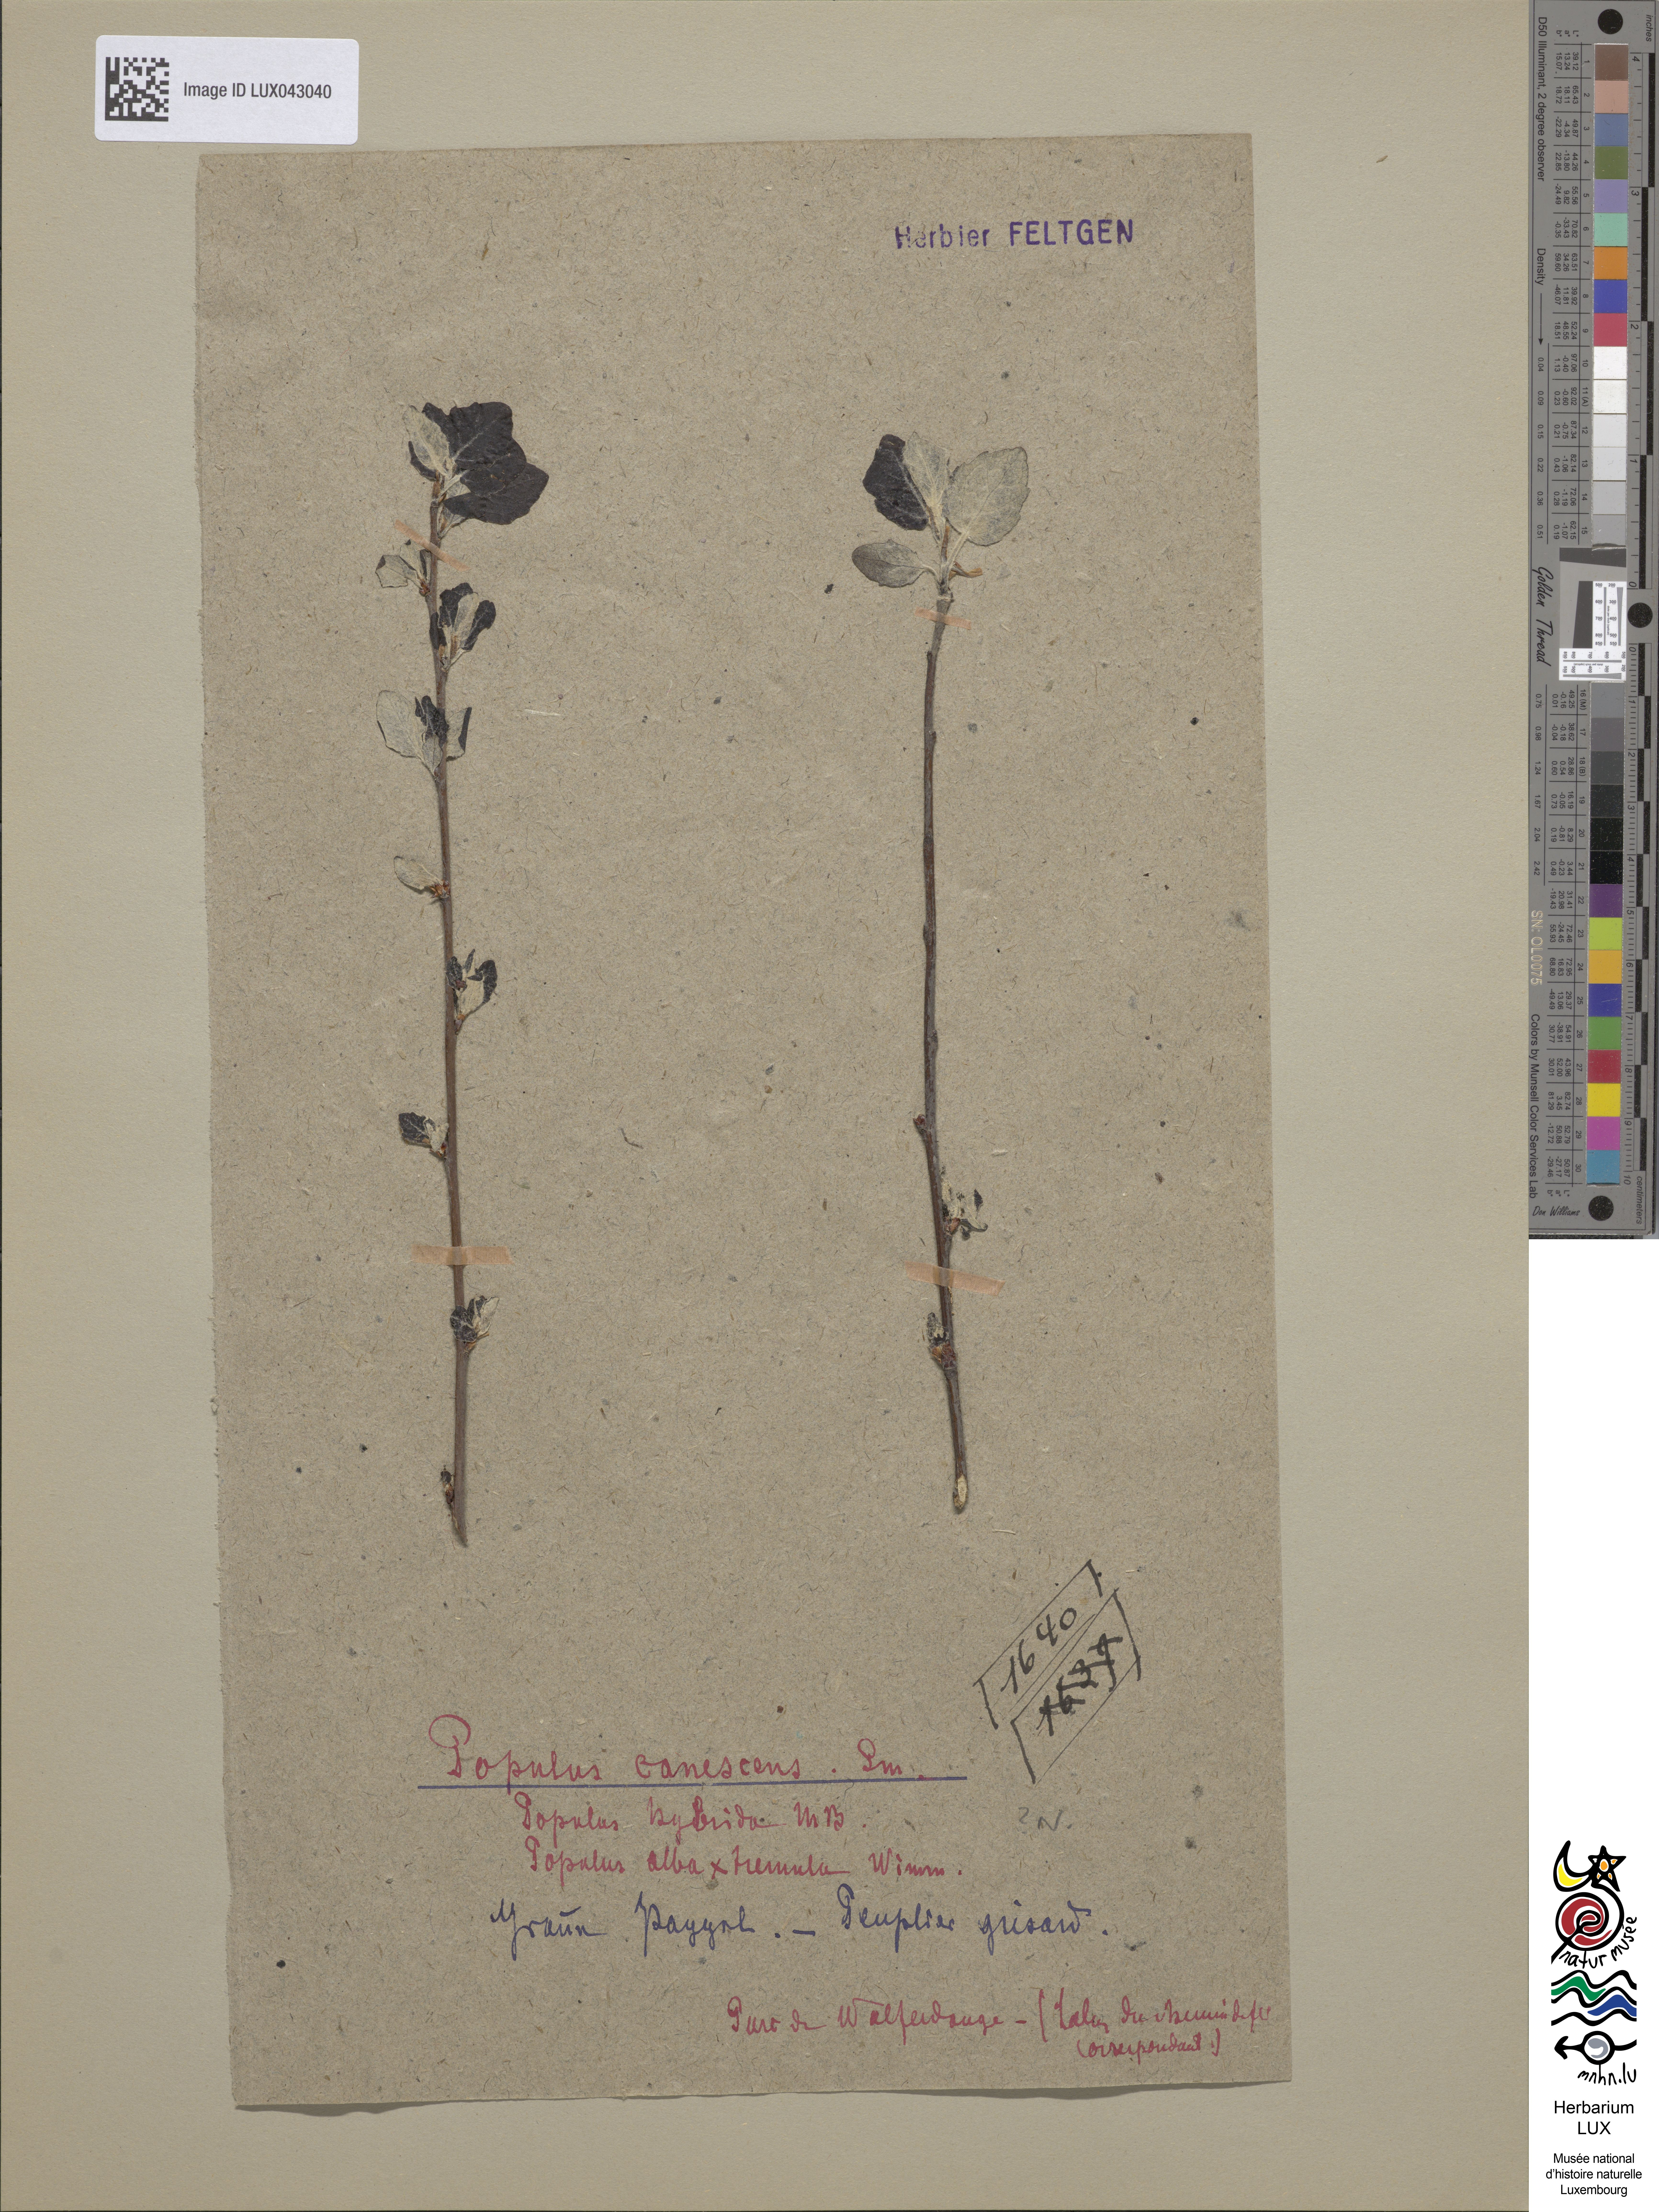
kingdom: Plantae
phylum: Tracheophyta
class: Magnoliopsida
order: Malpighiales
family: Salicaceae
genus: Populus
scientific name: Populus canescens
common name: Gray poplar
